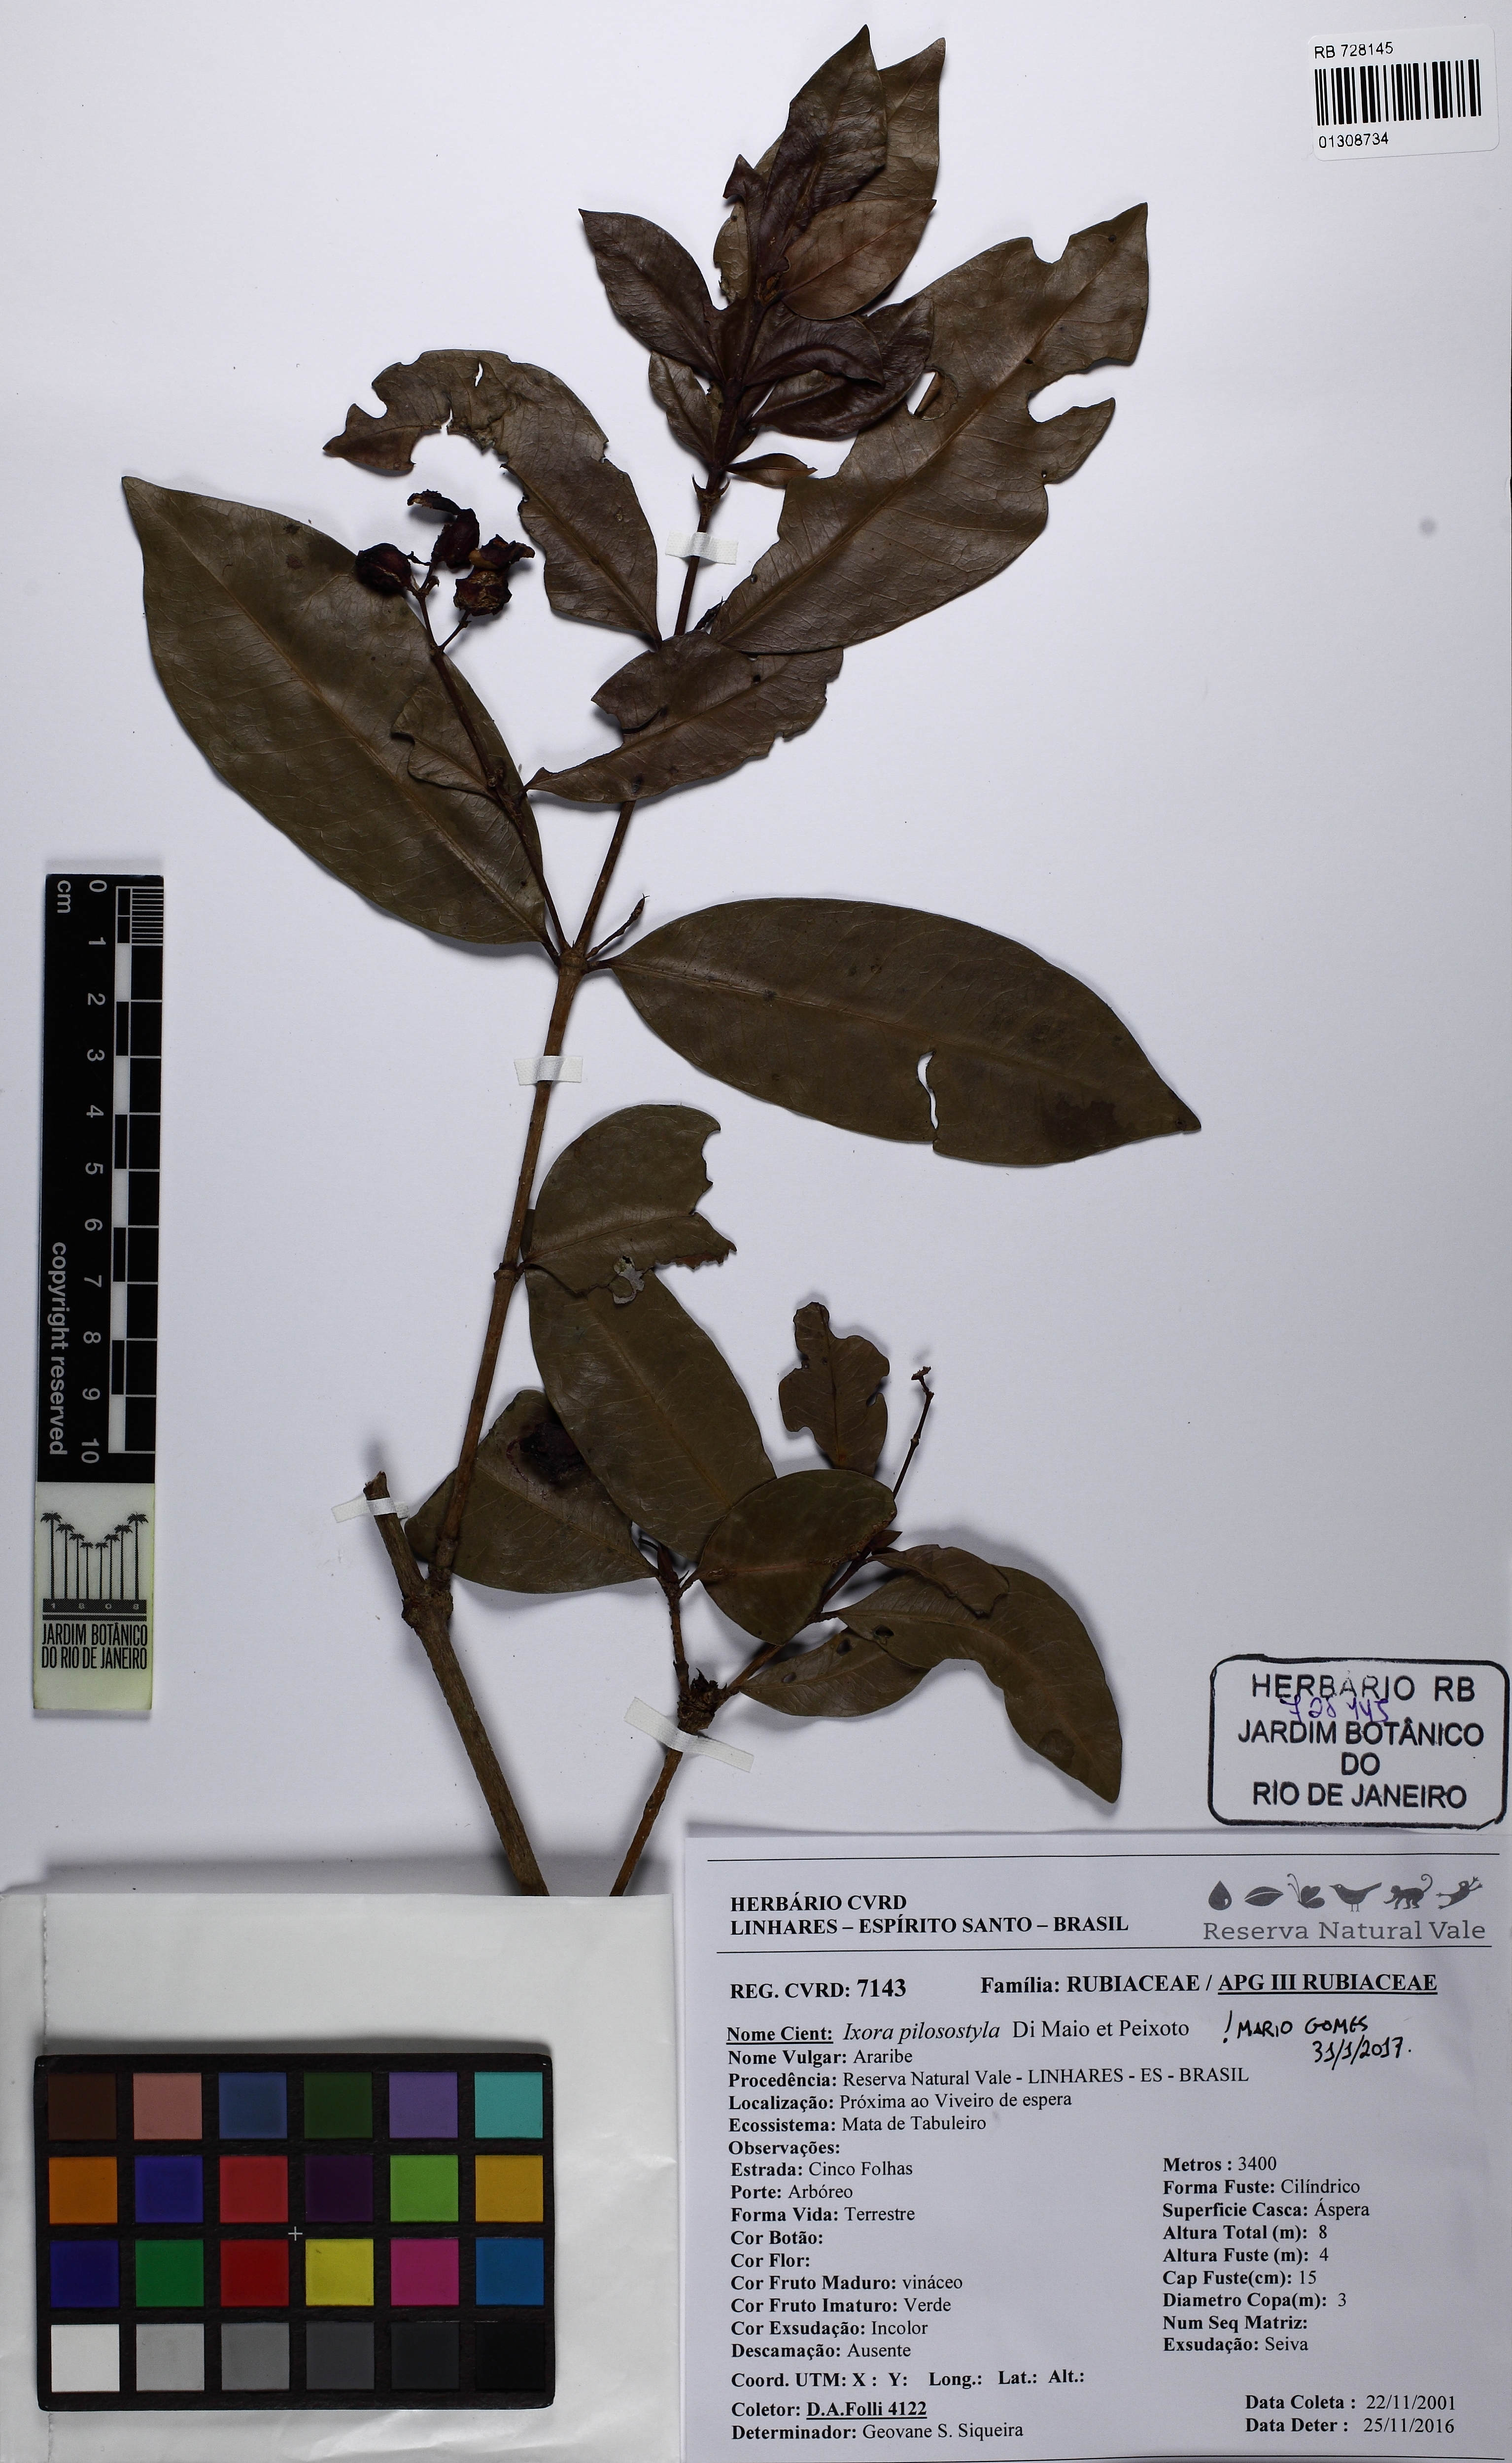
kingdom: Plantae
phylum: Tracheophyta
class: Magnoliopsida
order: Gentianales
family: Rubiaceae
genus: Ixora
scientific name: Ixora pilosostyla
